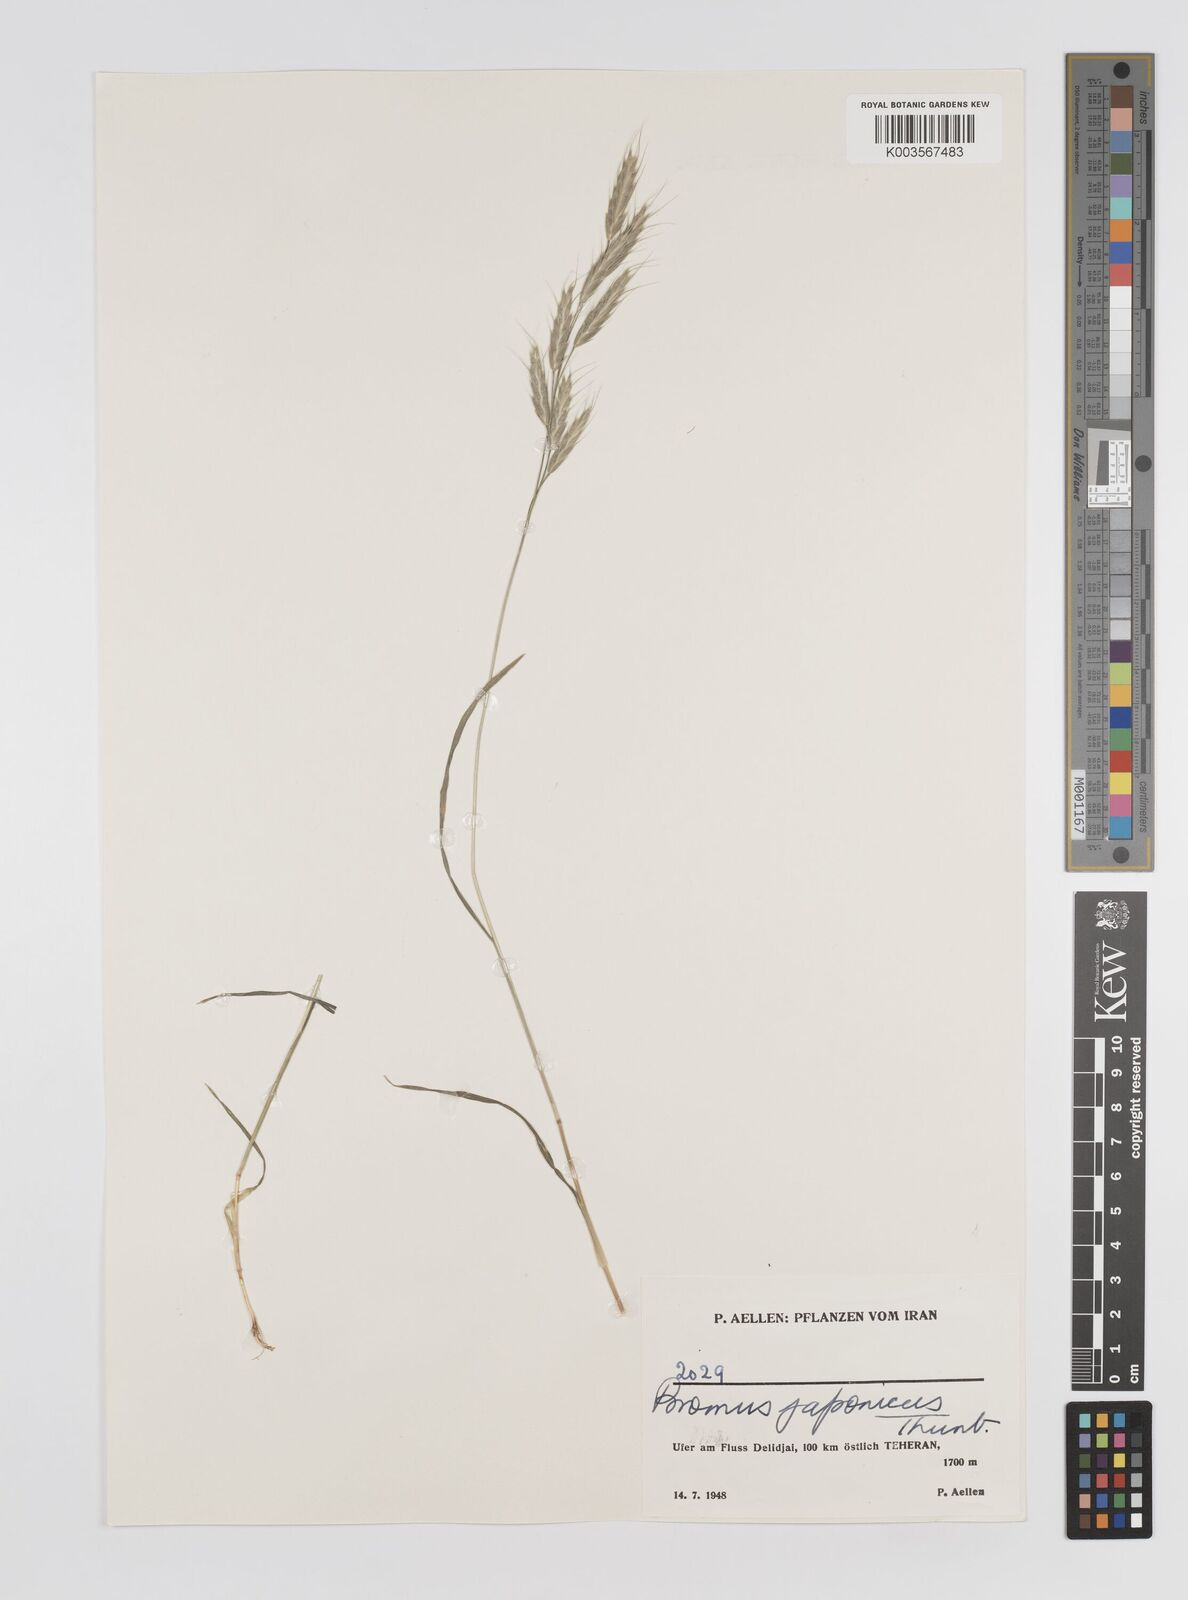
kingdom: Plantae
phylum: Tracheophyta
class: Liliopsida
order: Poales
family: Poaceae
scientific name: Poaceae
